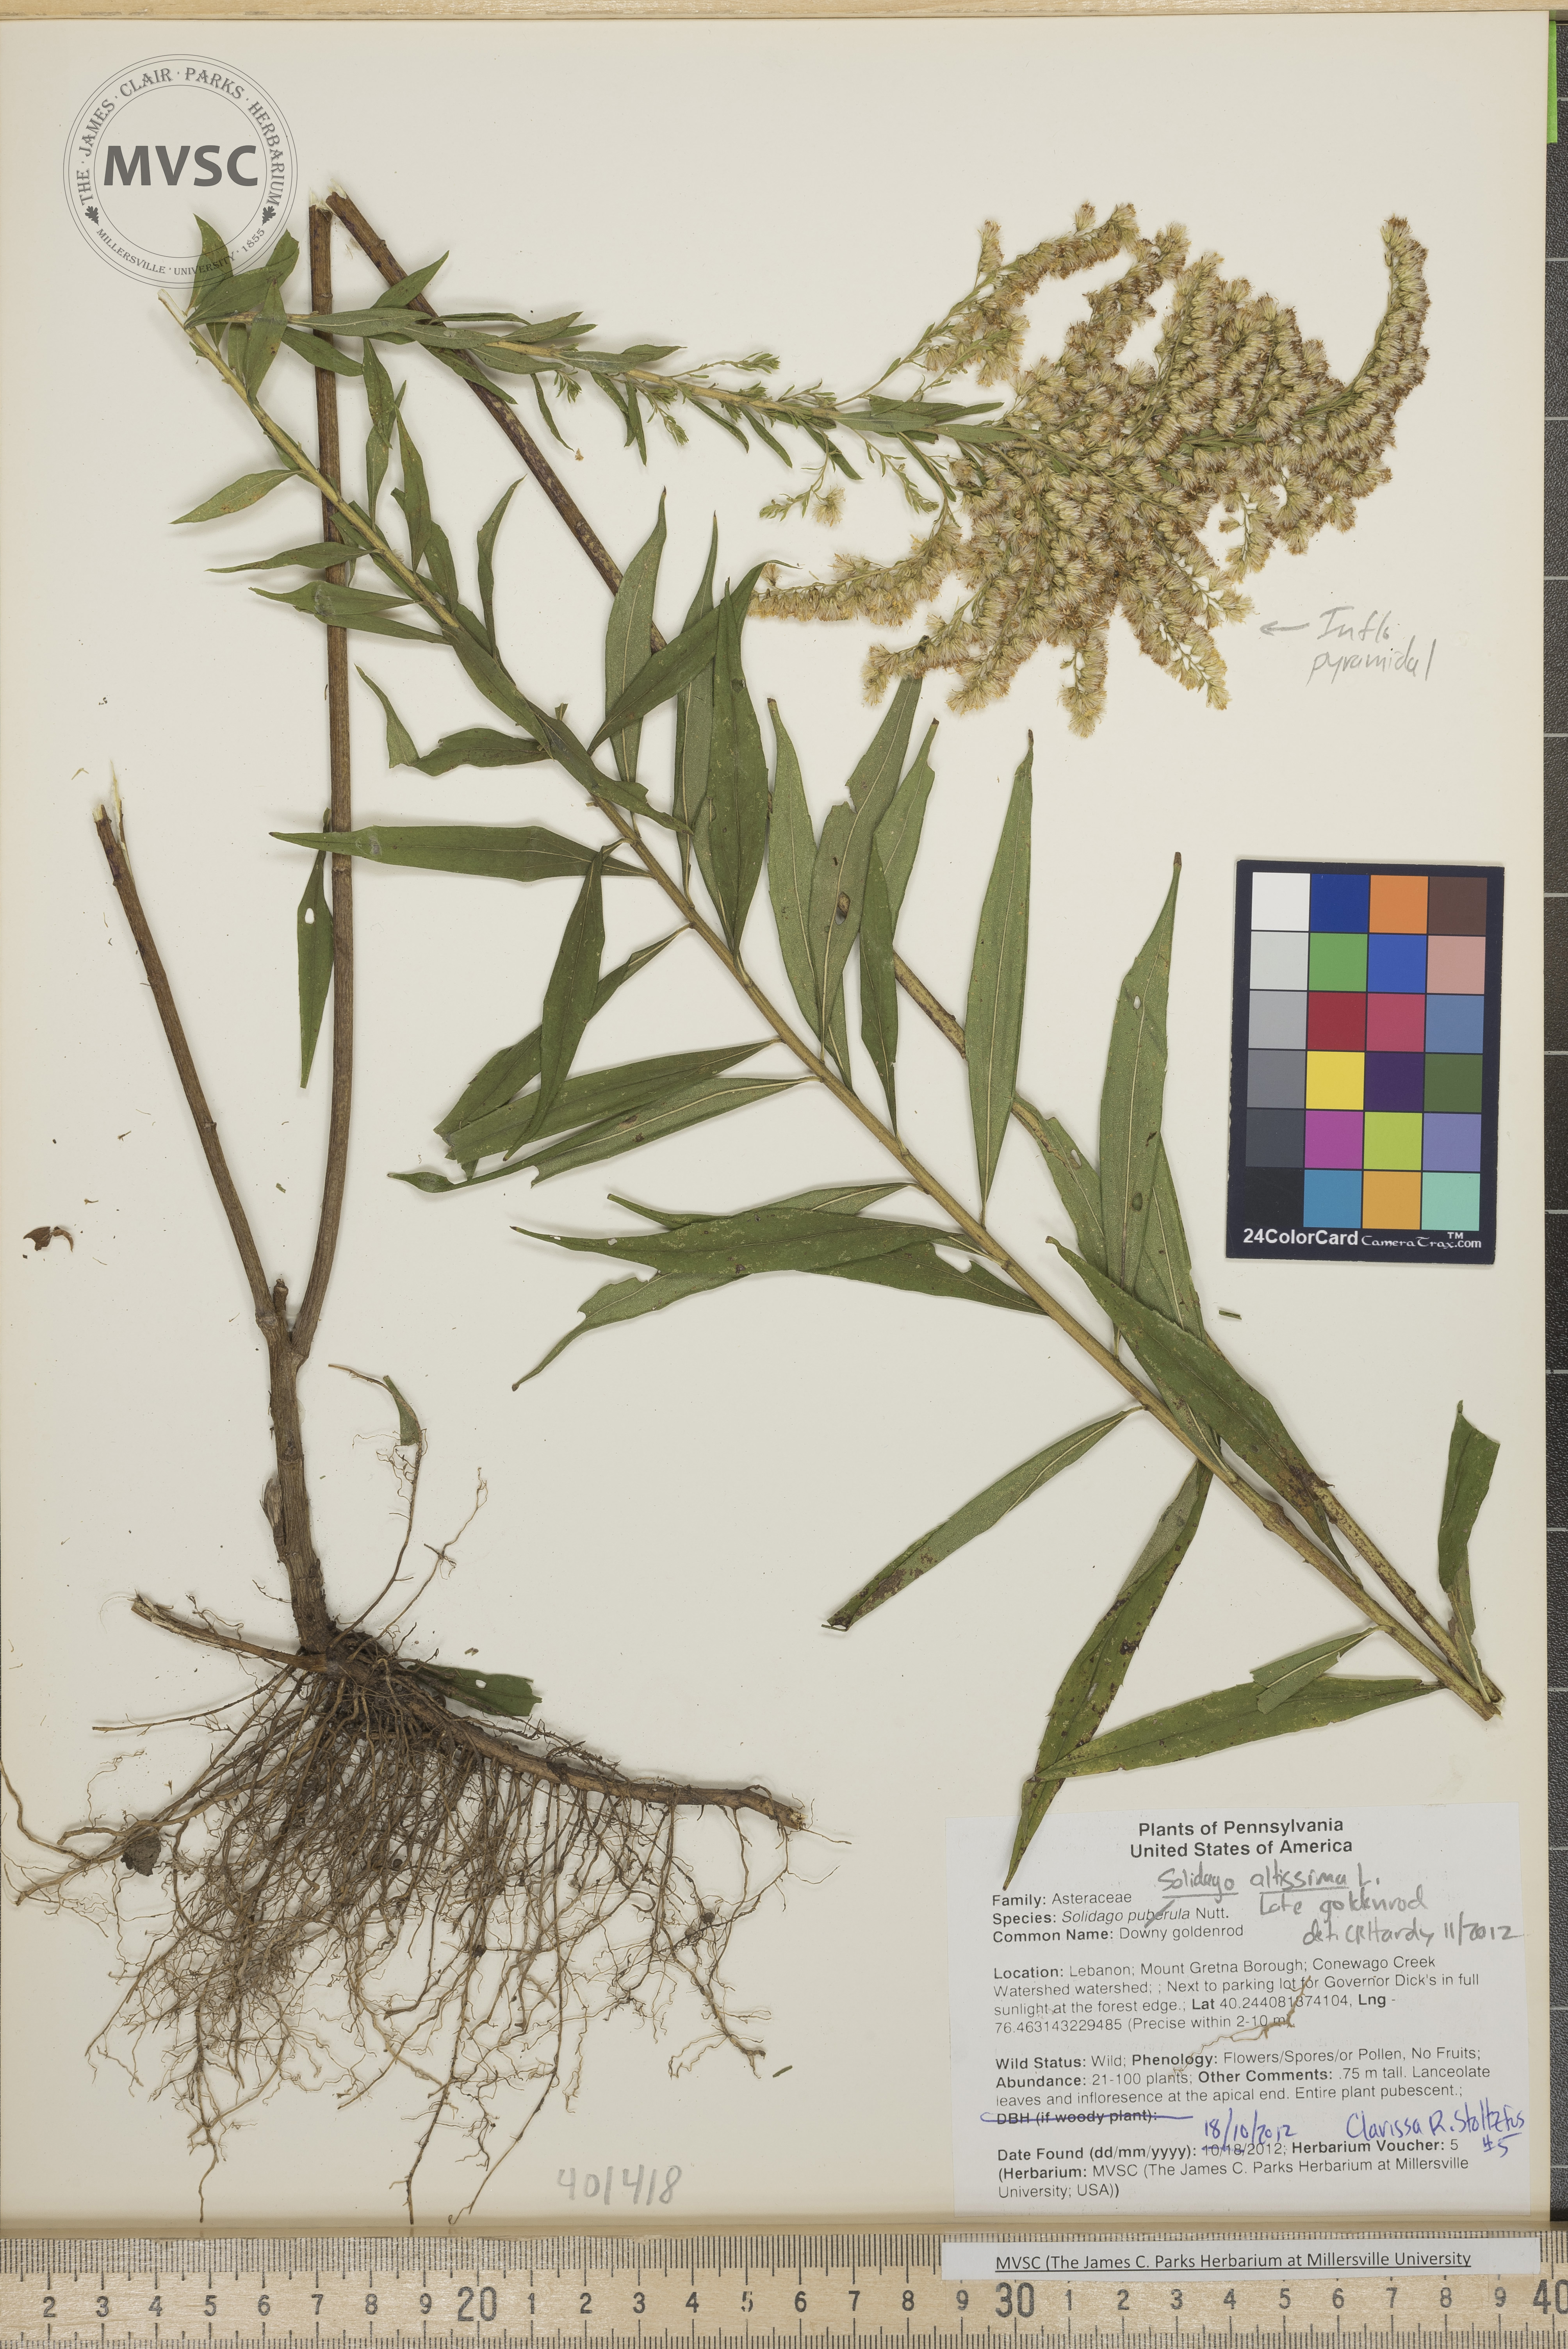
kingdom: Plantae
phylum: Tracheophyta
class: Magnoliopsida
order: Asterales
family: Asteraceae
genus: Solidago
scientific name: Solidago altissima
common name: Late goldenrod
